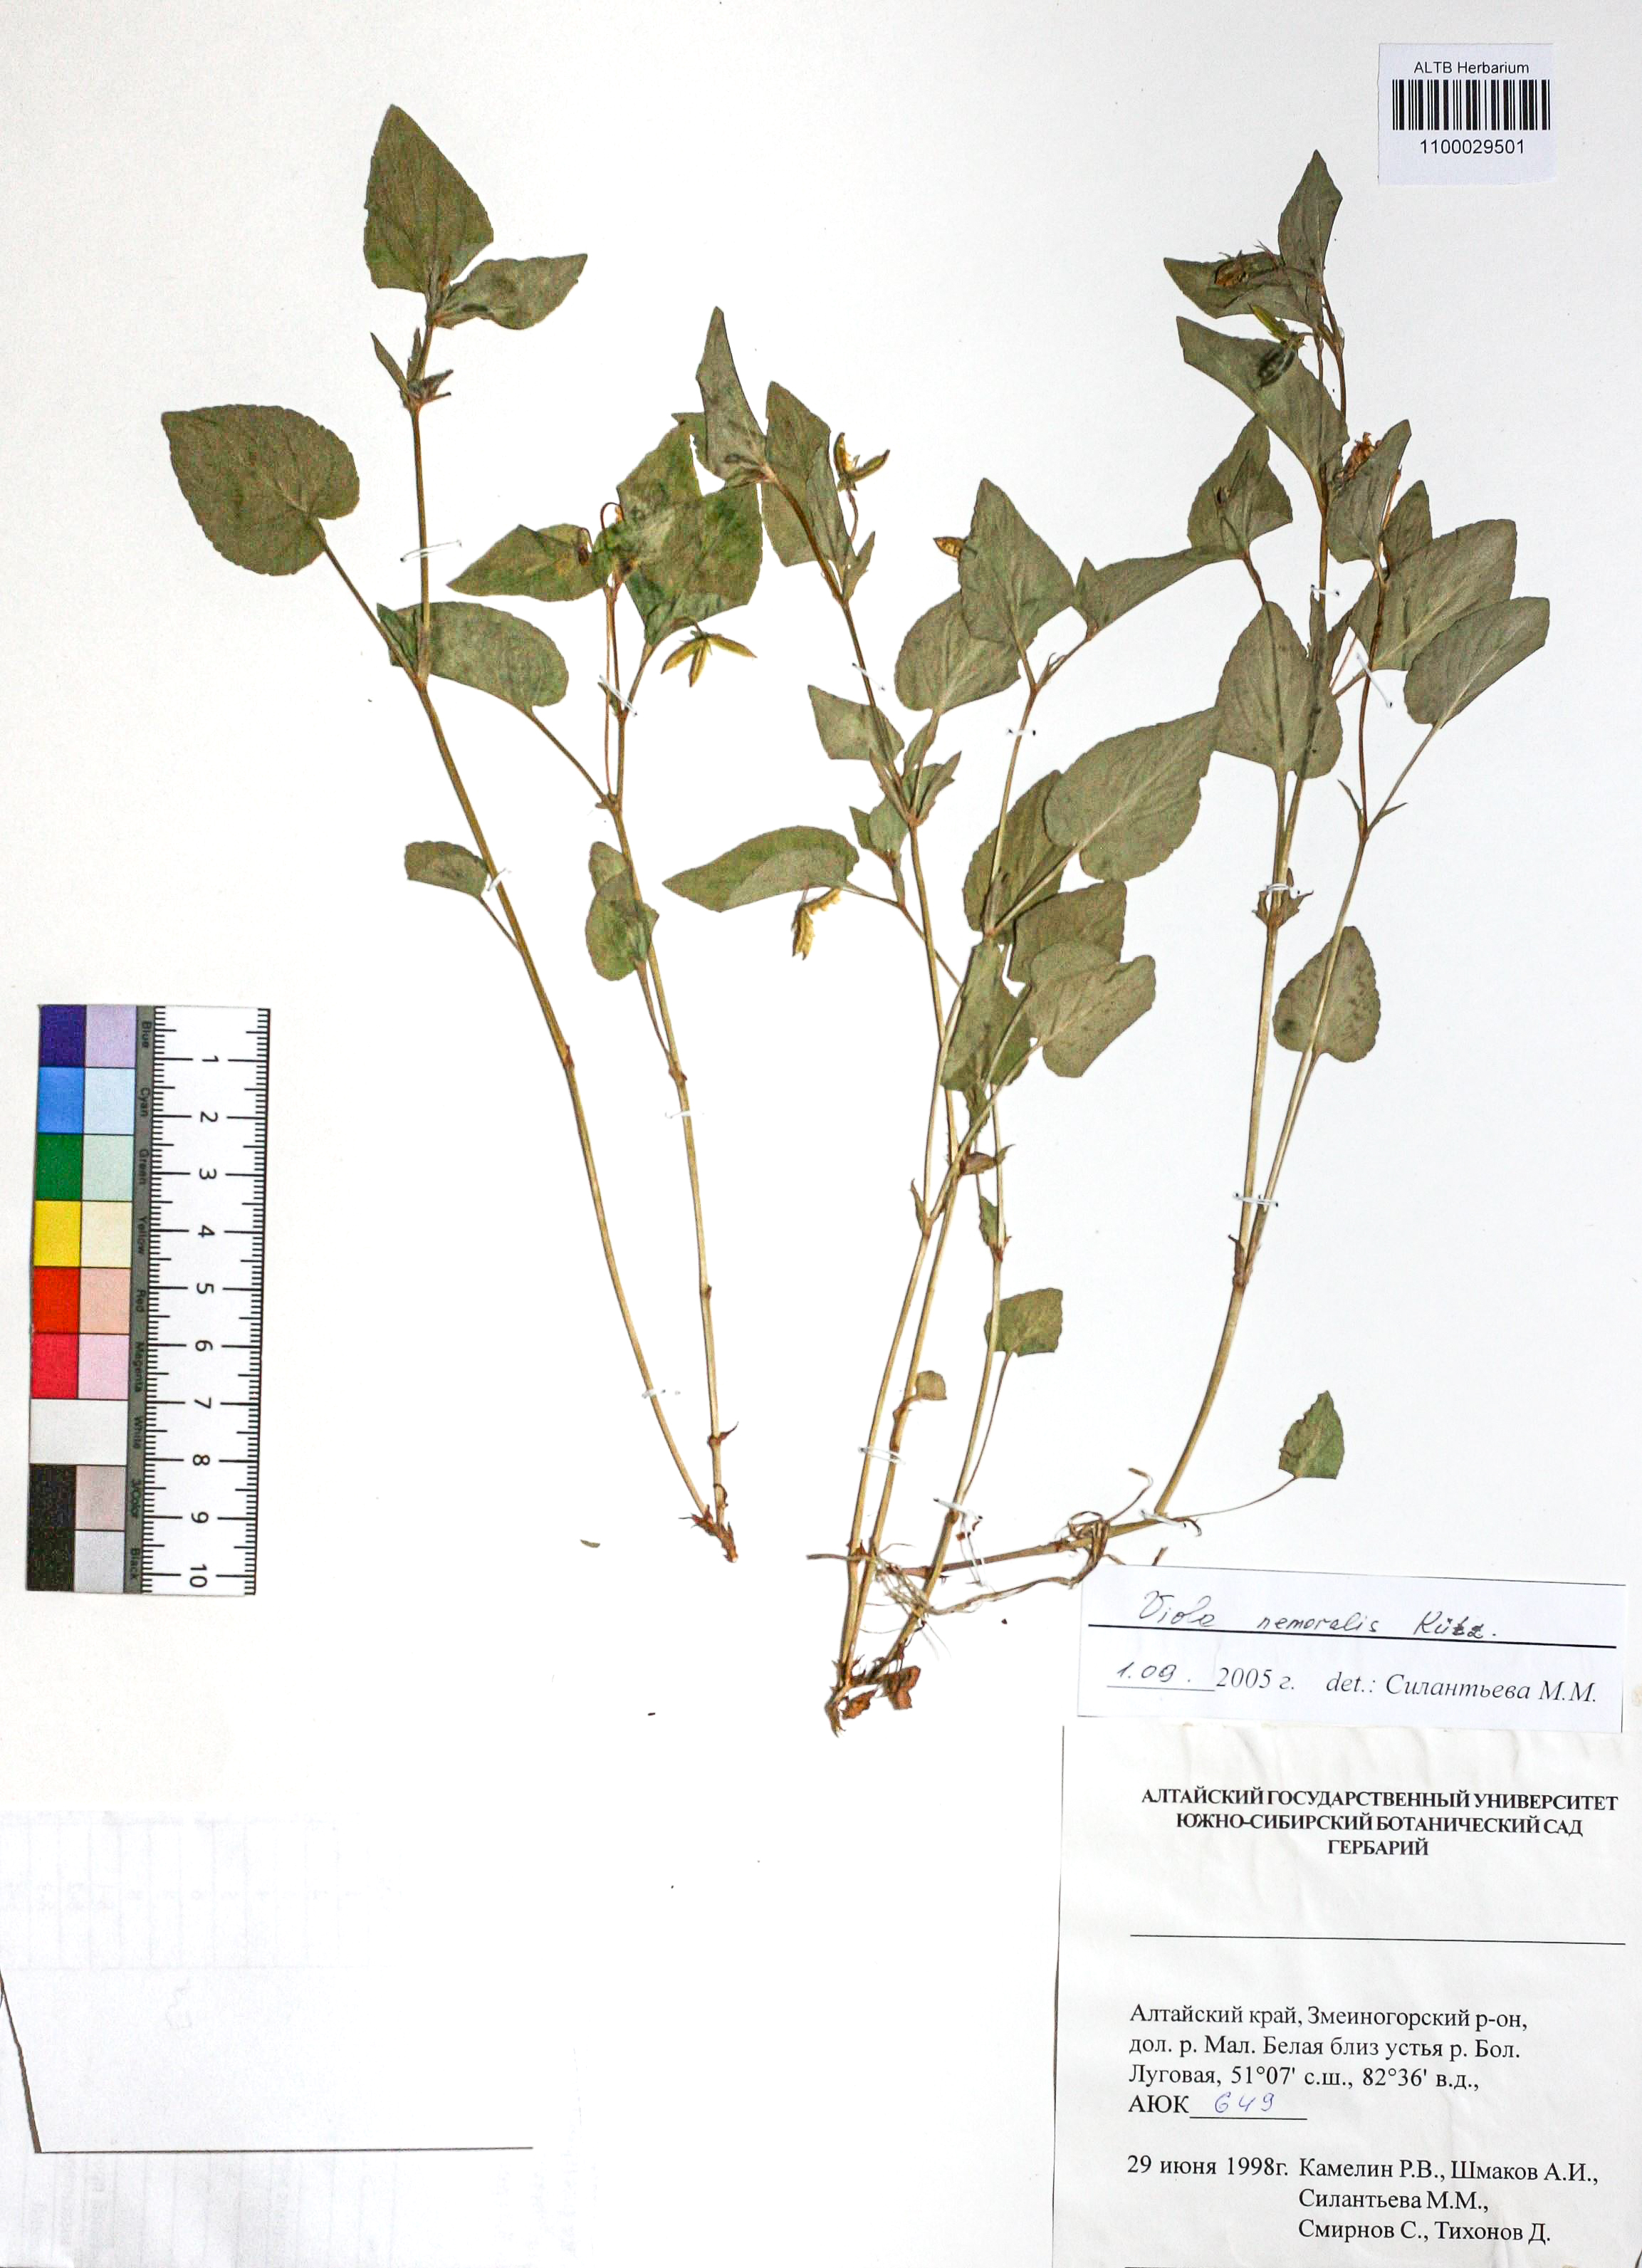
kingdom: Plantae
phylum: Tracheophyta
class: Magnoliopsida
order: Malpighiales
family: Violaceae
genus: Viola
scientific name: Viola ruppii
